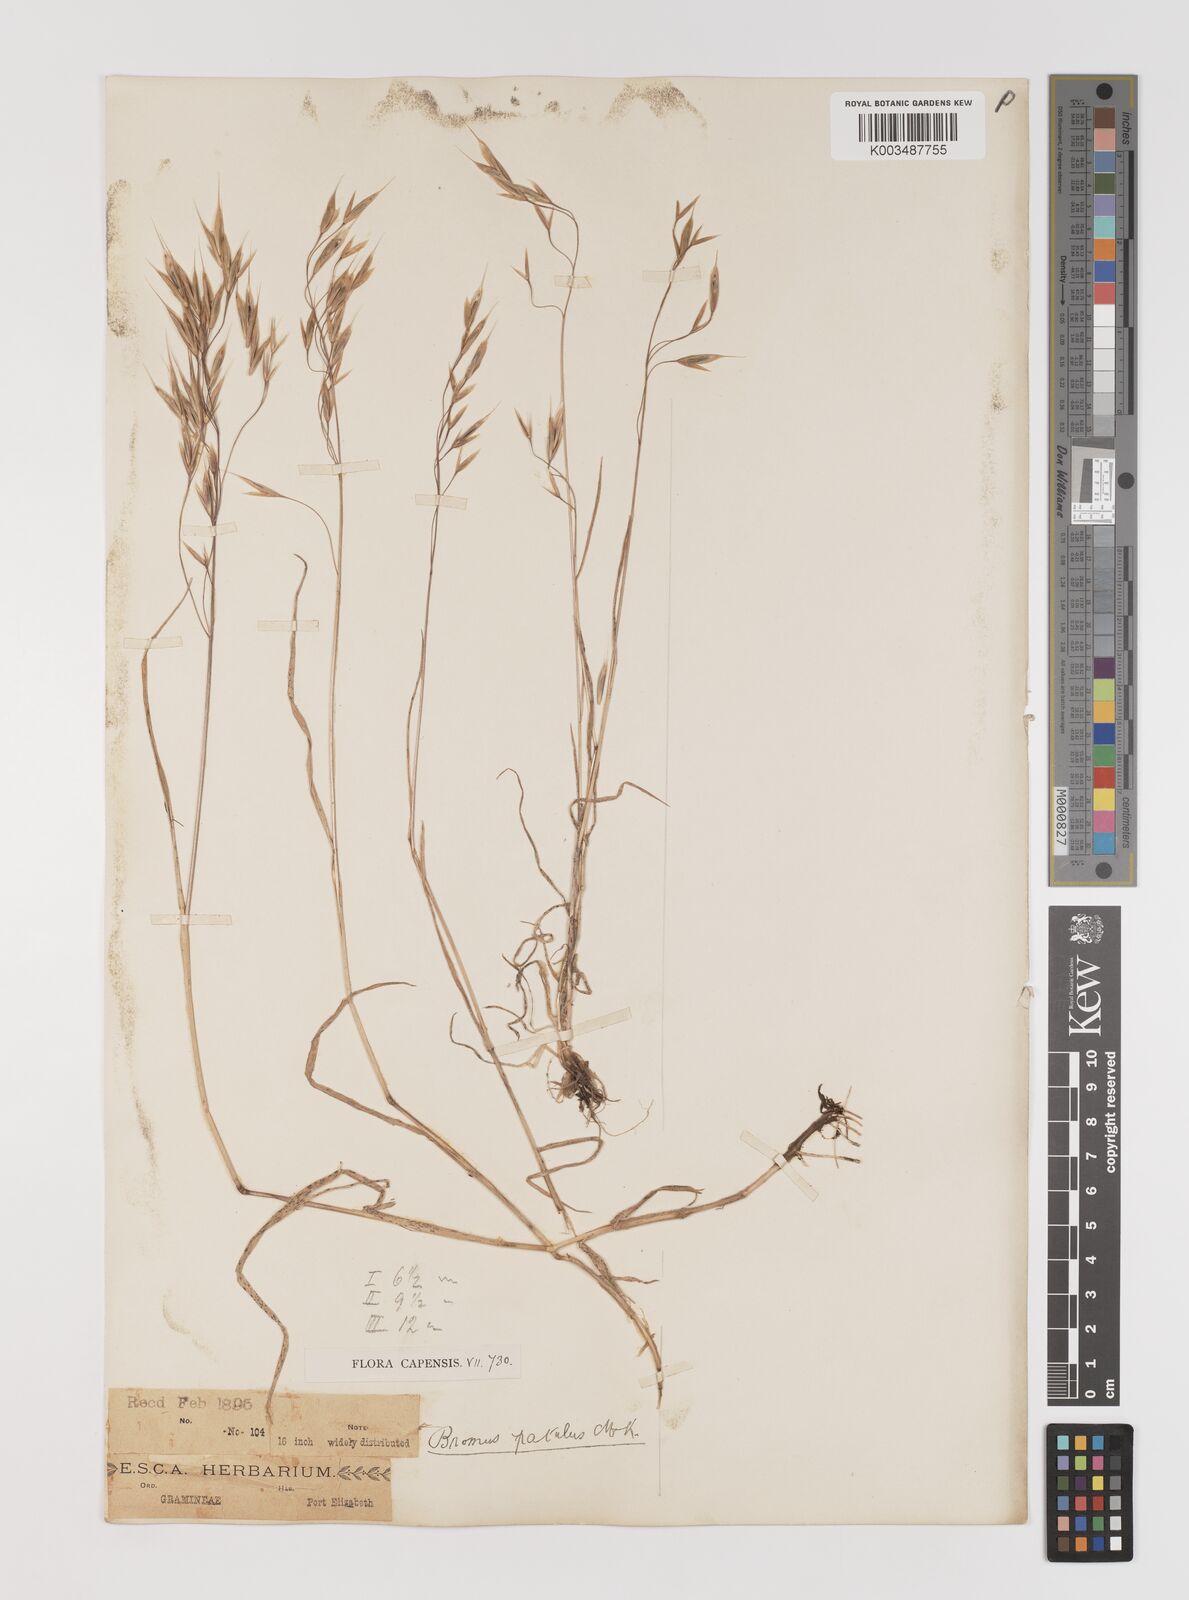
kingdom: Plantae
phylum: Tracheophyta
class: Liliopsida
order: Poales
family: Poaceae
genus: Bromus
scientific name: Bromus pectinatus
